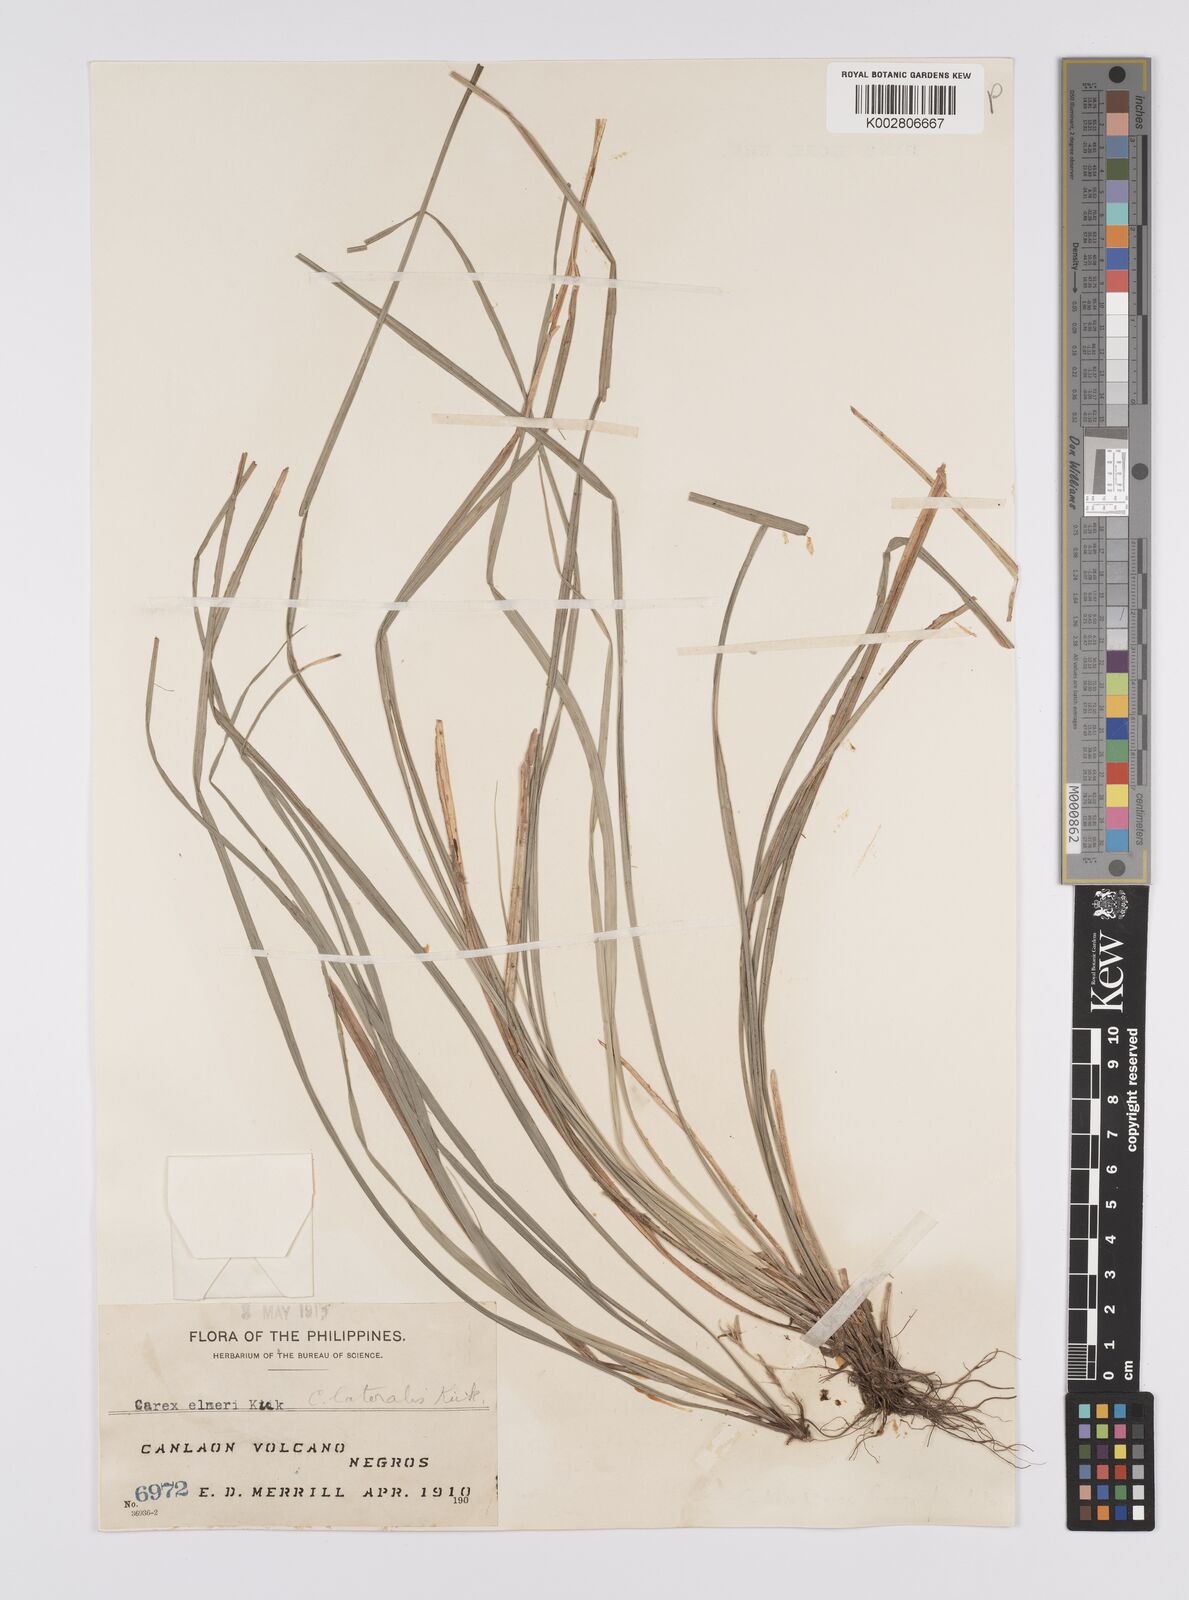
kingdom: Plantae
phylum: Tracheophyta
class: Liliopsida
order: Poales
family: Cyperaceae
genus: Carex
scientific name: Carex oxyphylla
